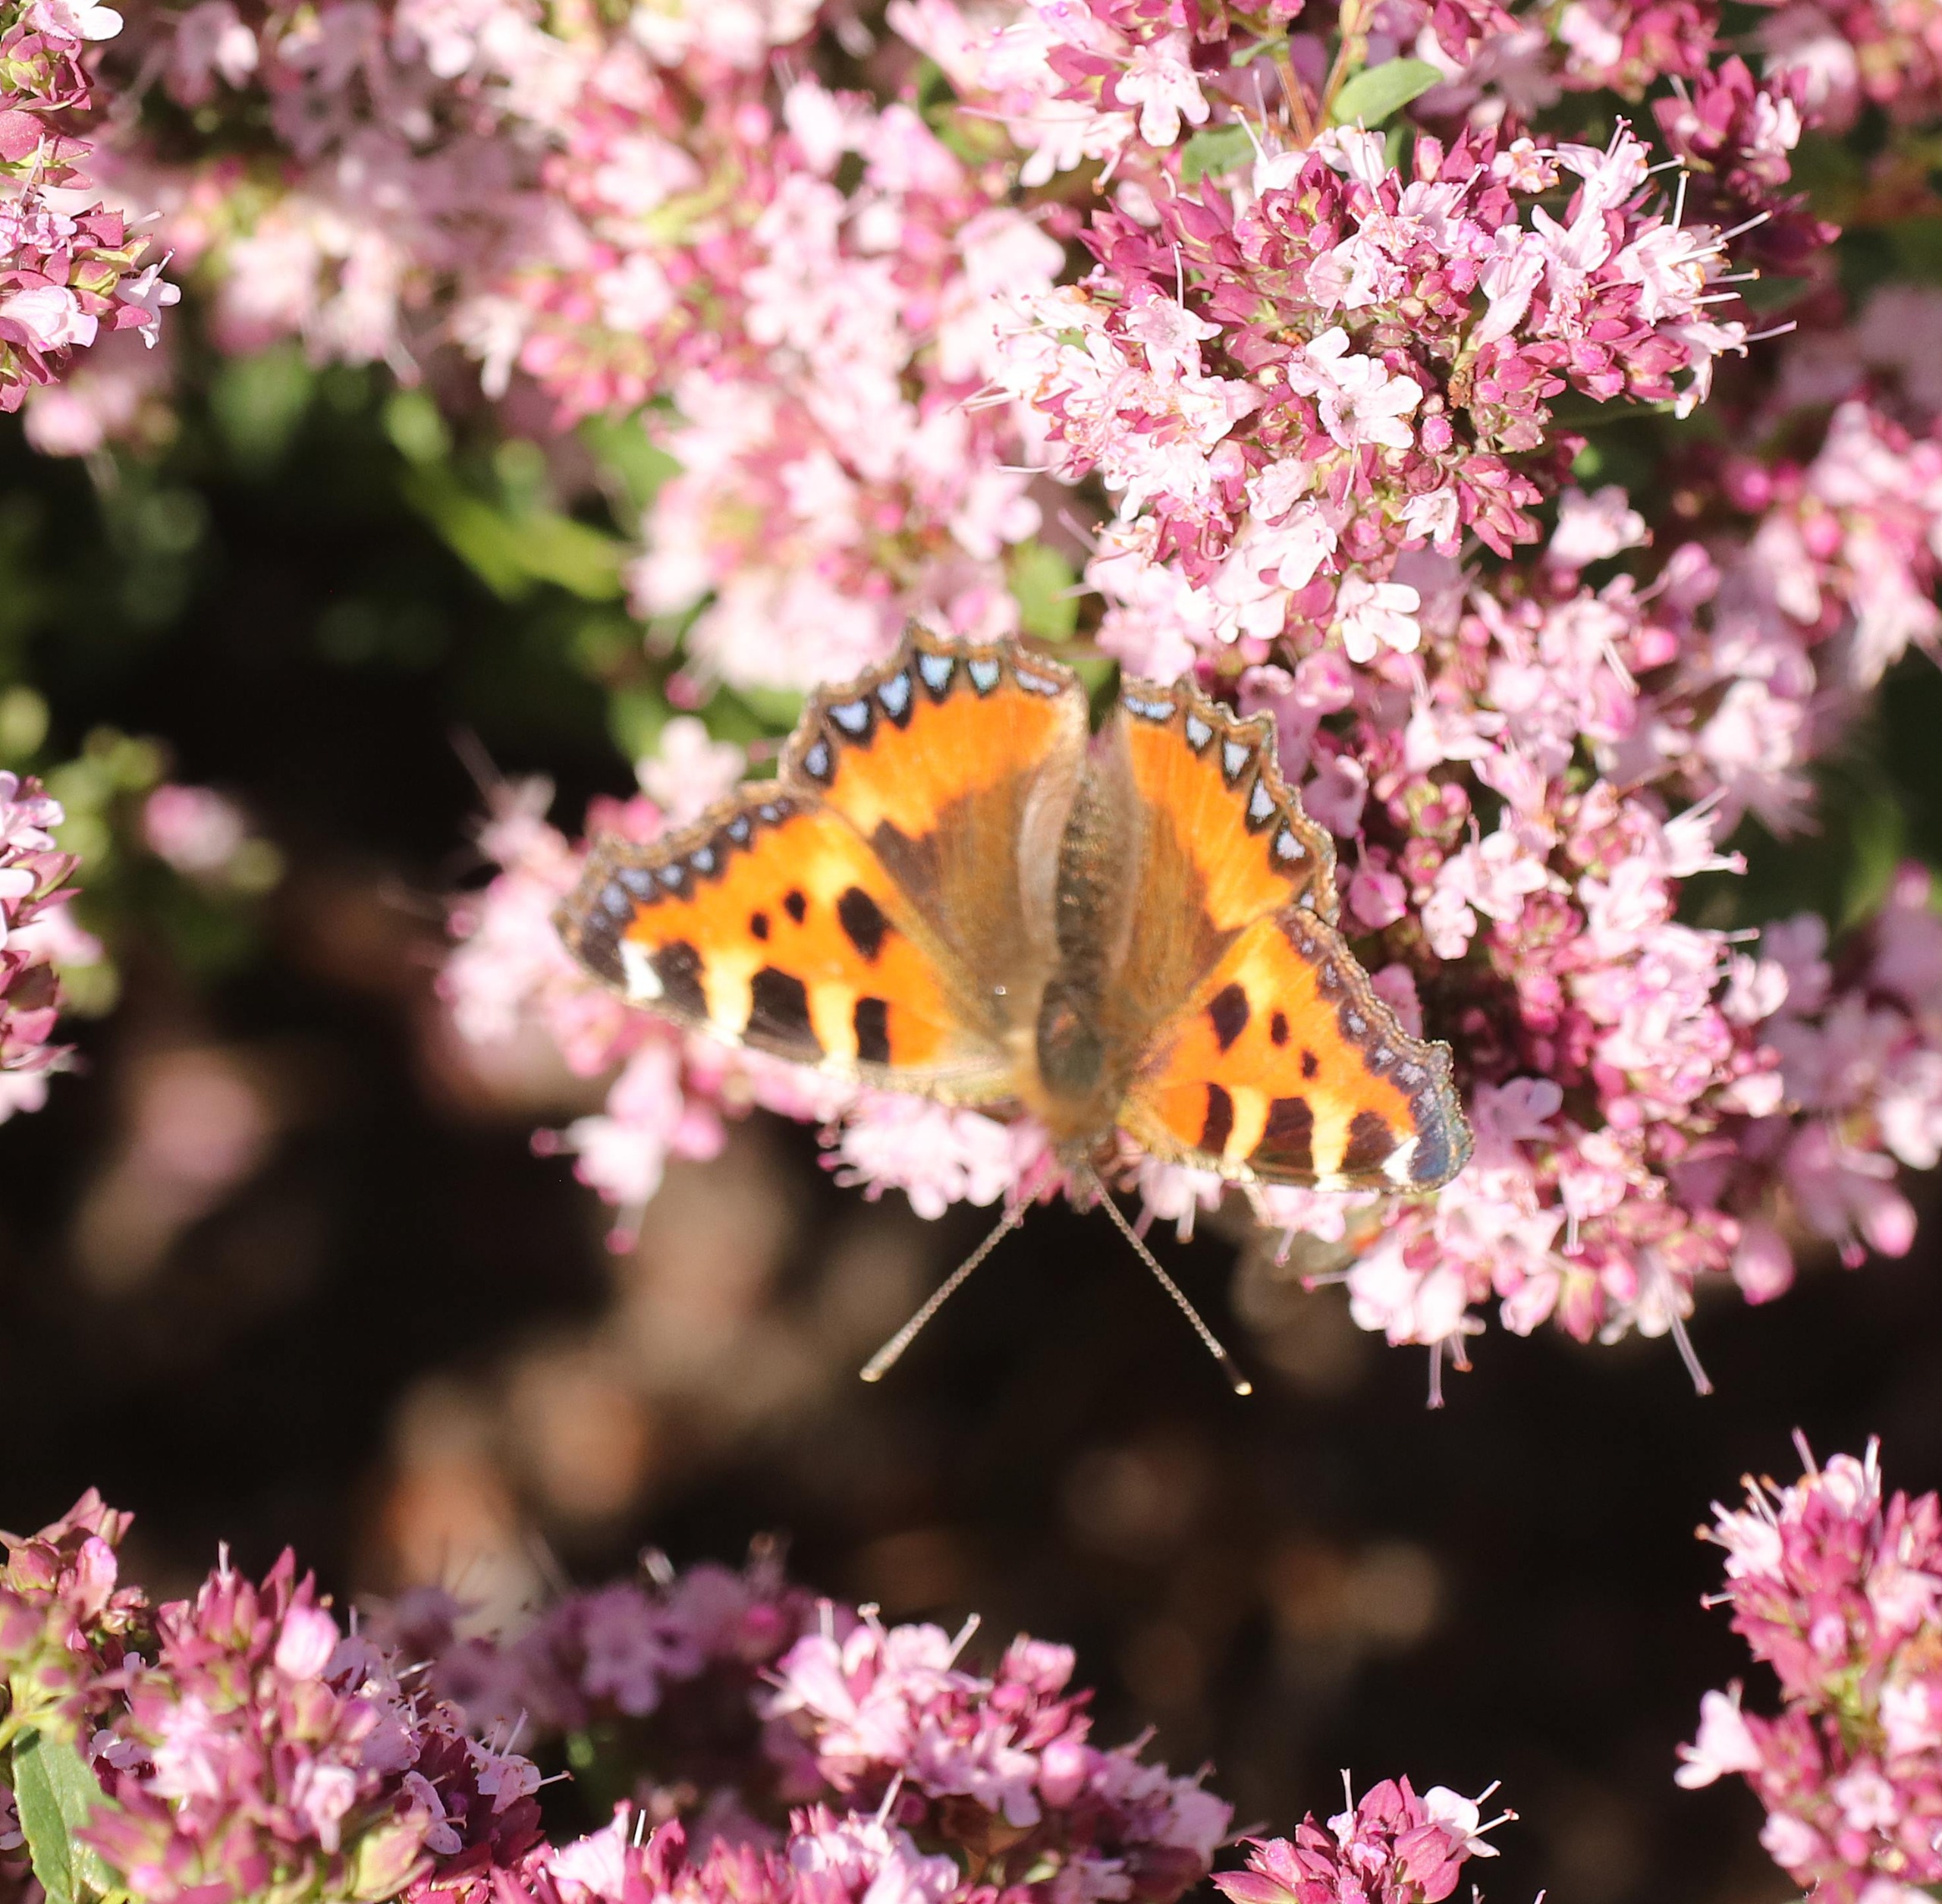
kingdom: Animalia
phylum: Arthropoda
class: Insecta
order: Lepidoptera
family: Nymphalidae
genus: Aglais
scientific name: Aglais urticae
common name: Nældens takvinge
